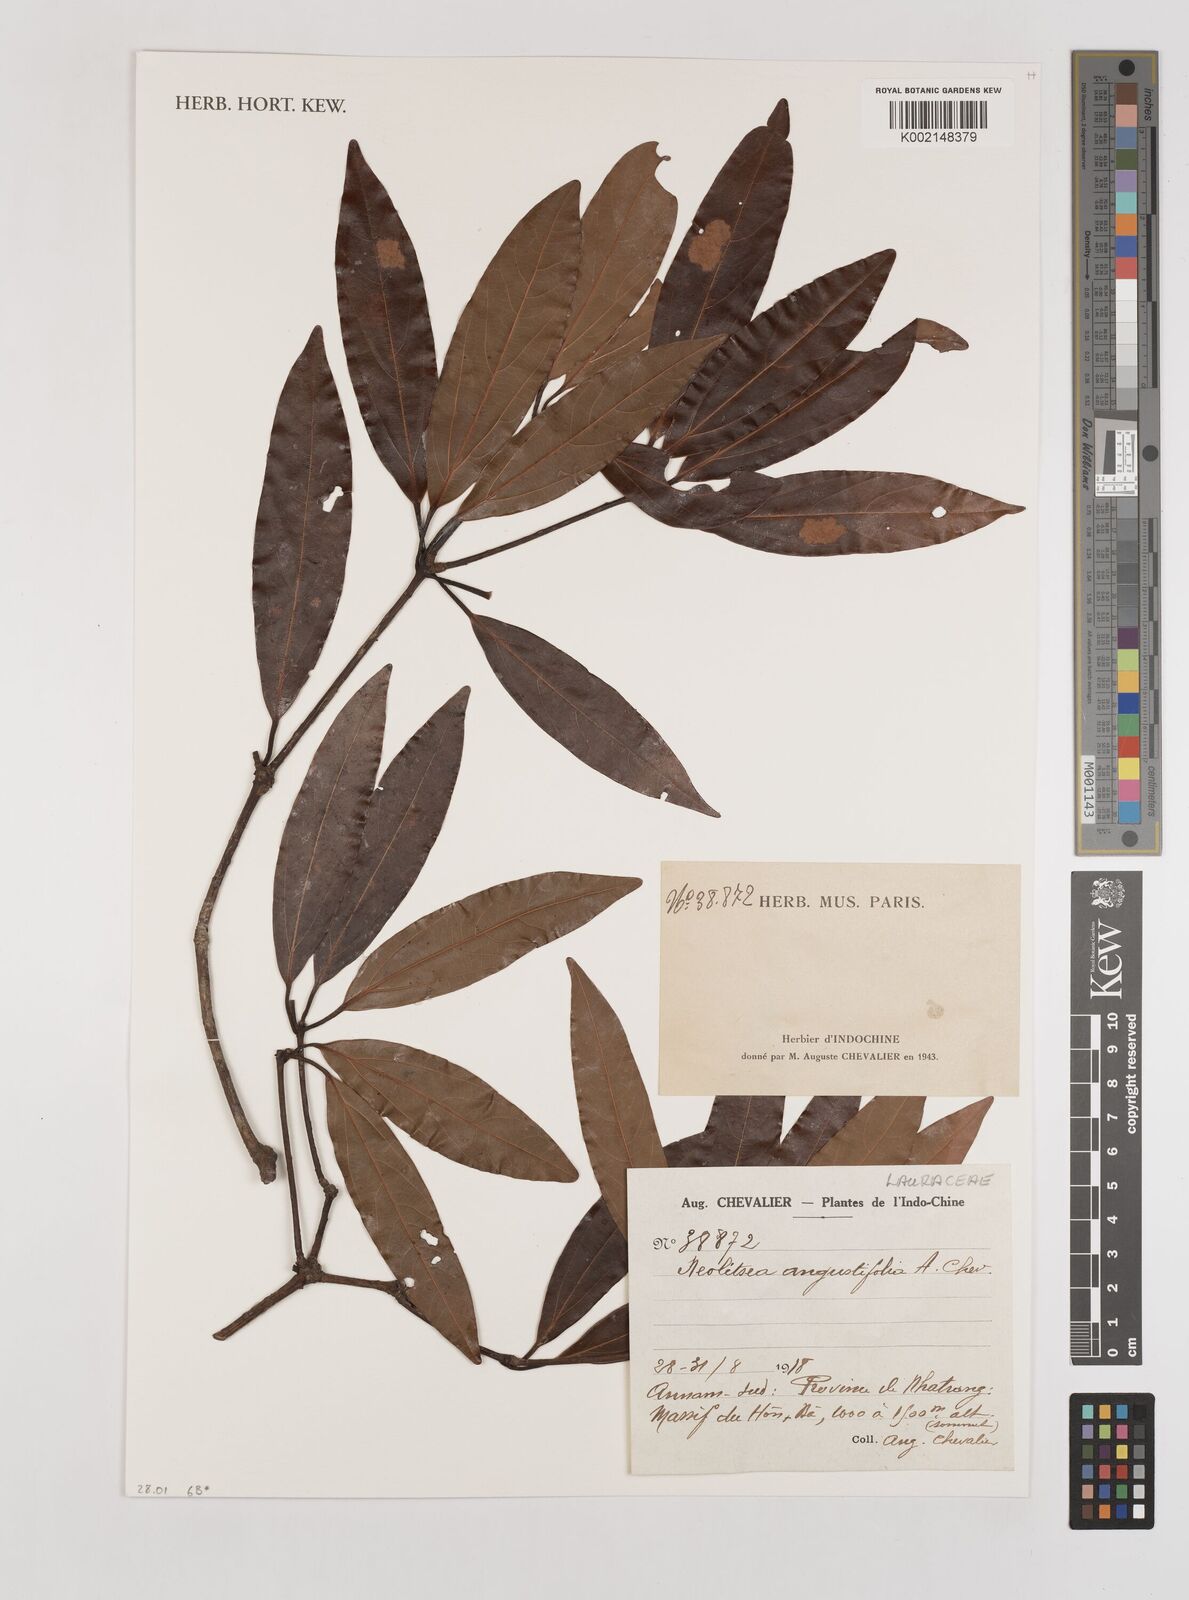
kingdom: Plantae
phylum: Tracheophyta
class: Magnoliopsida
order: Laurales
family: Lauraceae
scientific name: Lauraceae
